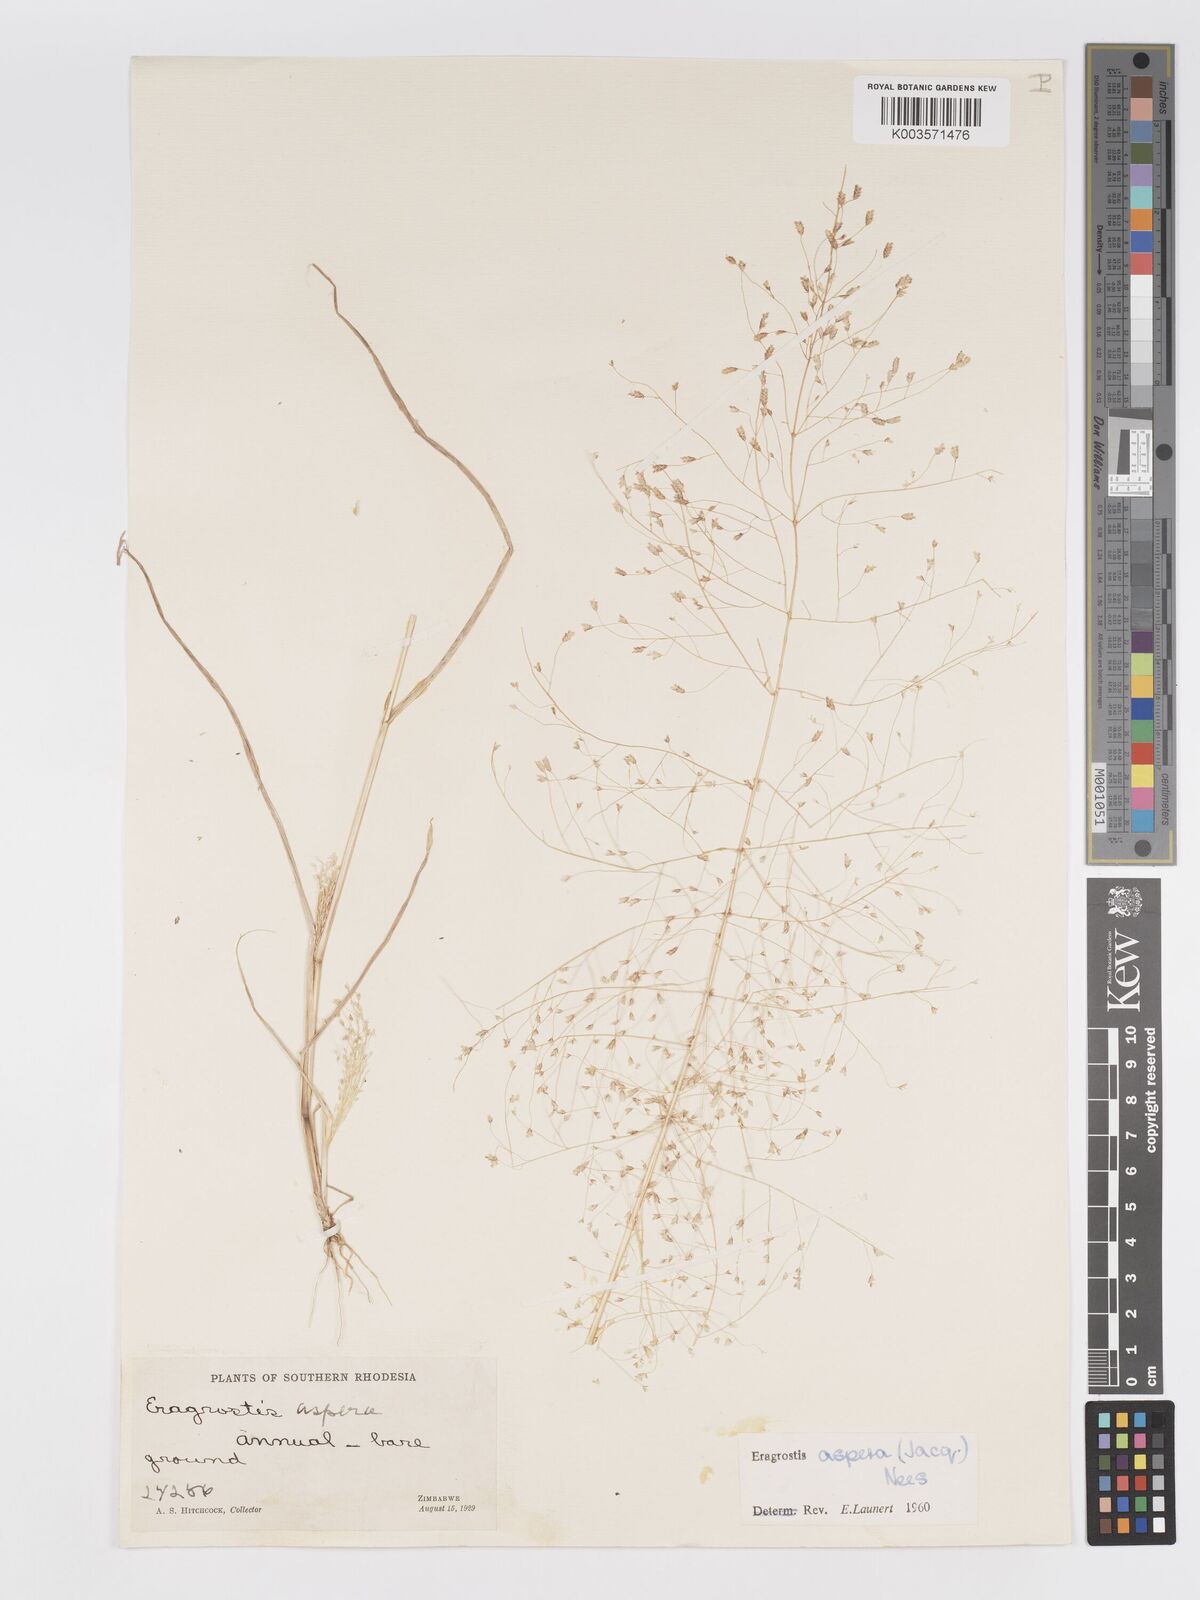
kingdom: Plantae
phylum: Tracheophyta
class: Liliopsida
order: Poales
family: Poaceae
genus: Eragrostis
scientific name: Eragrostis aspera
